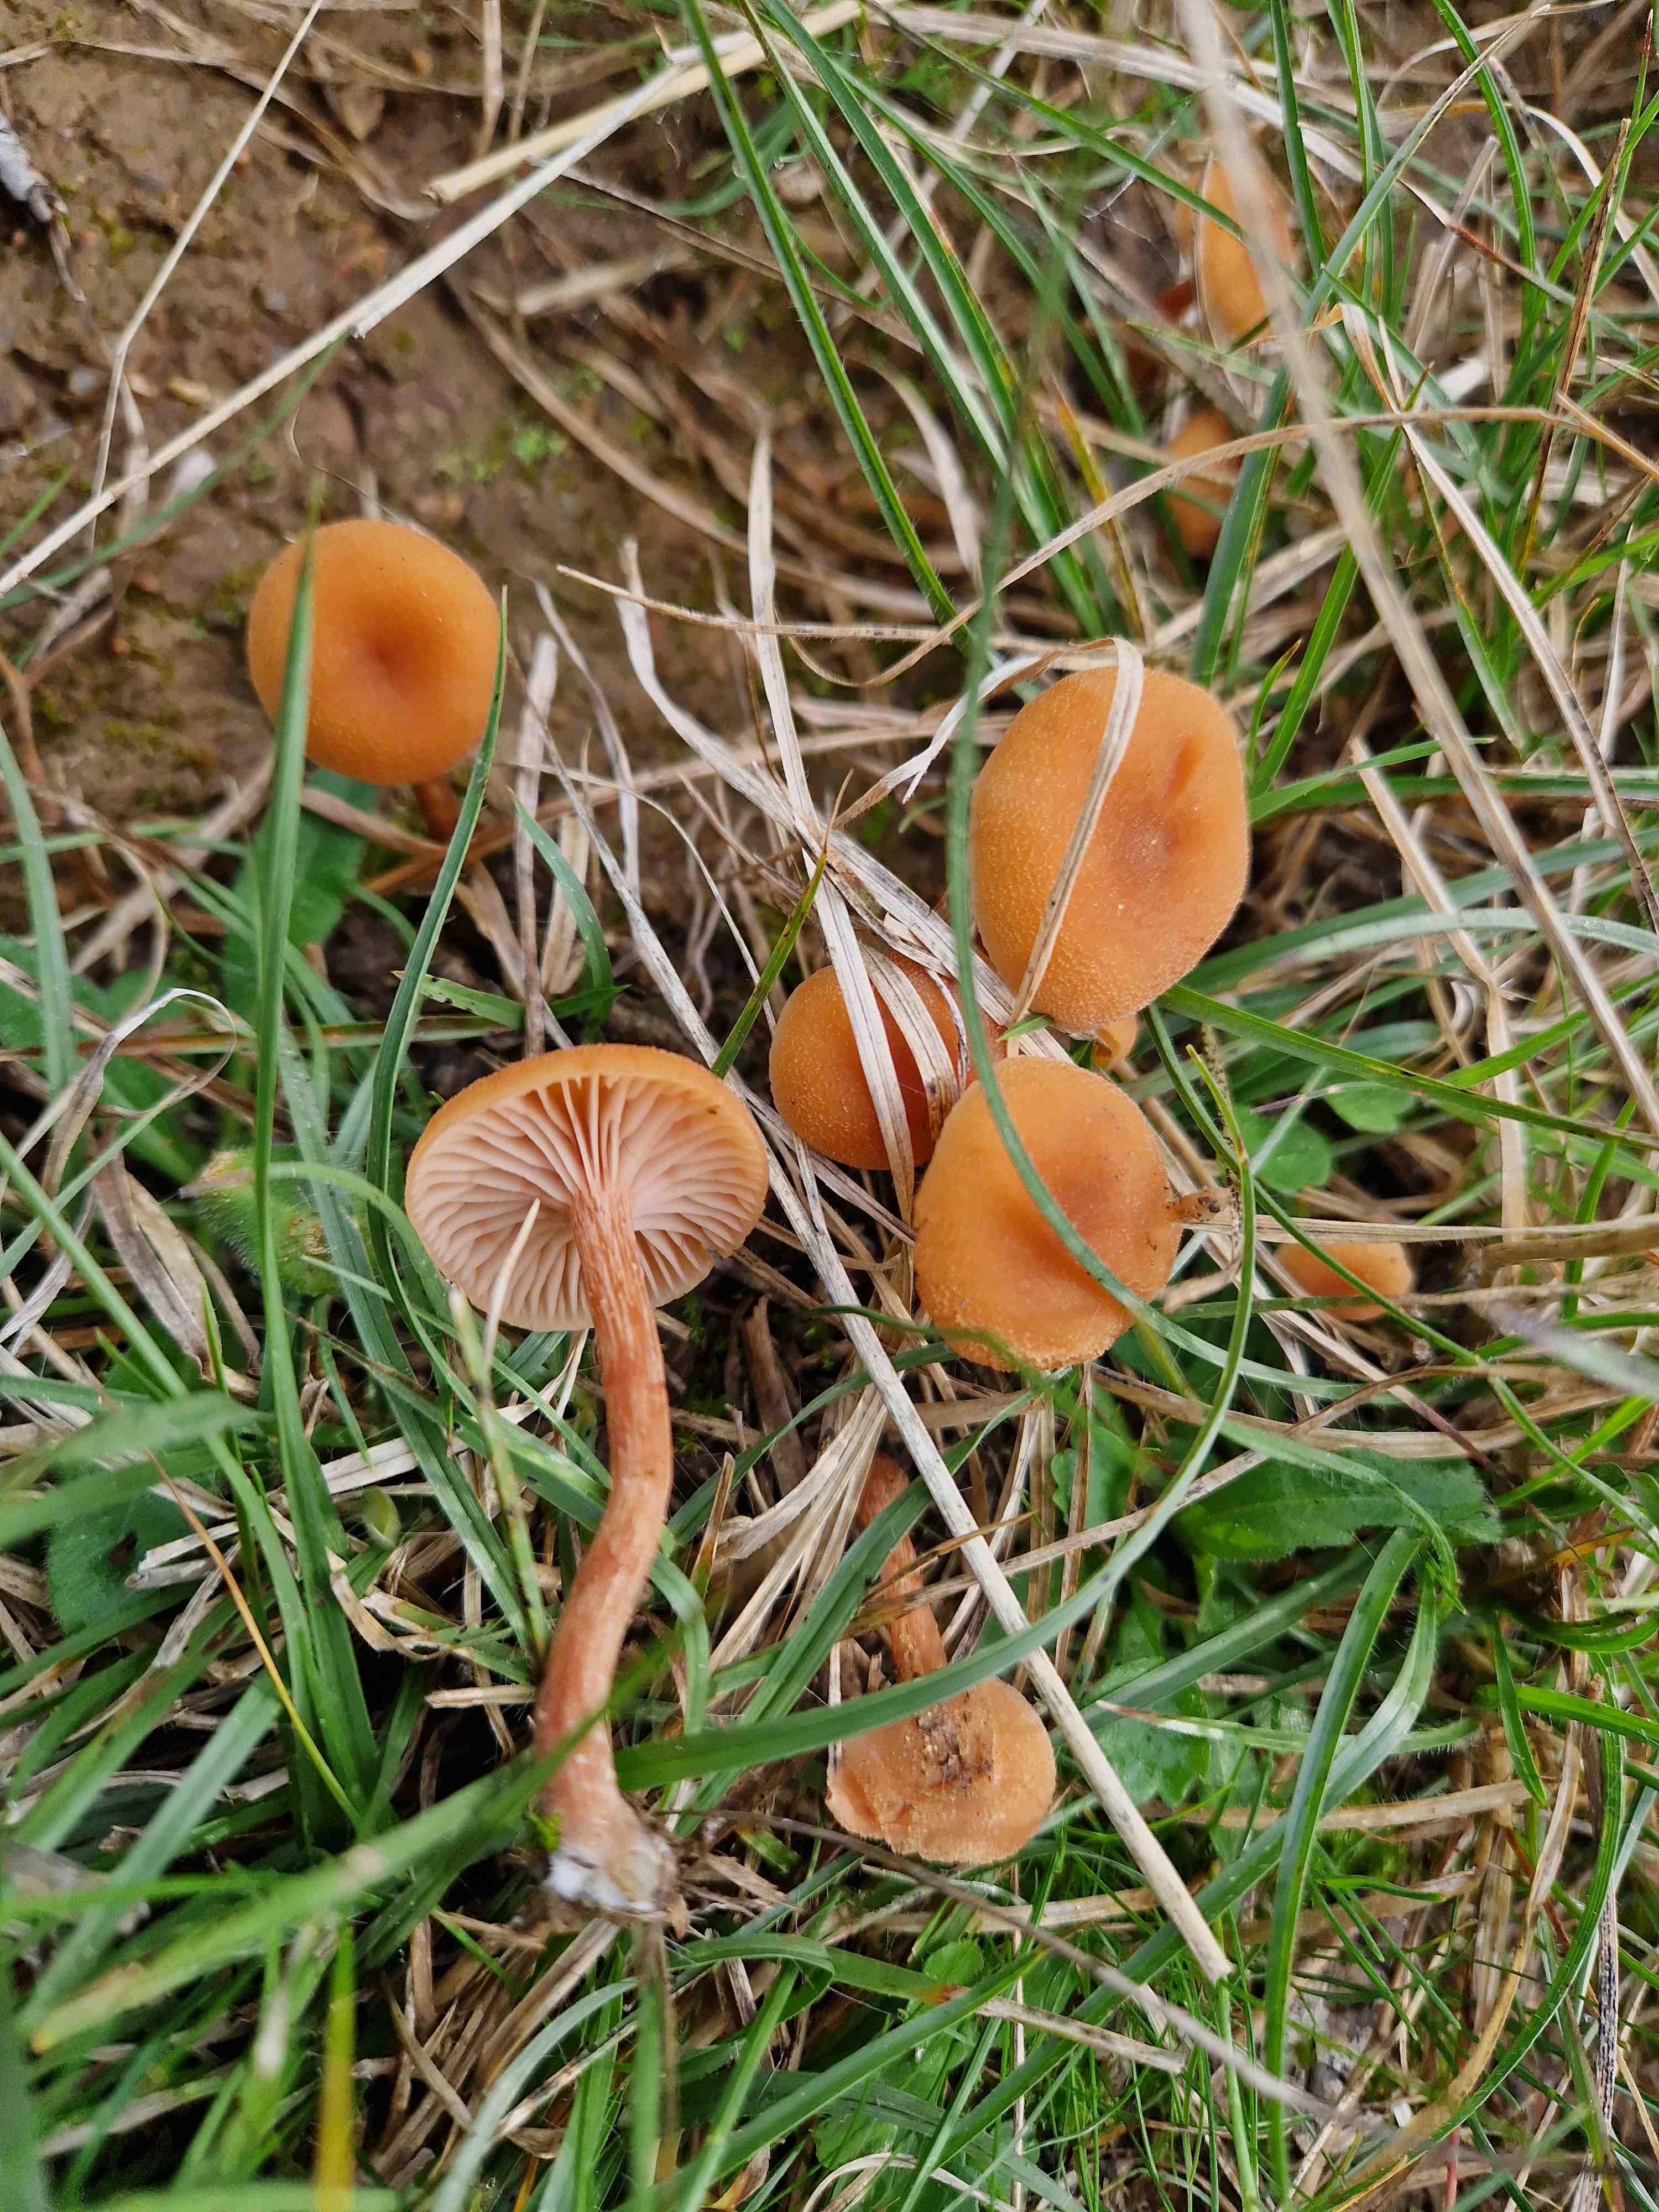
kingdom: Fungi
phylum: Basidiomycota
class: Agaricomycetes
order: Agaricales
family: Hydnangiaceae
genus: Laccaria
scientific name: Laccaria
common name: ametysthat
